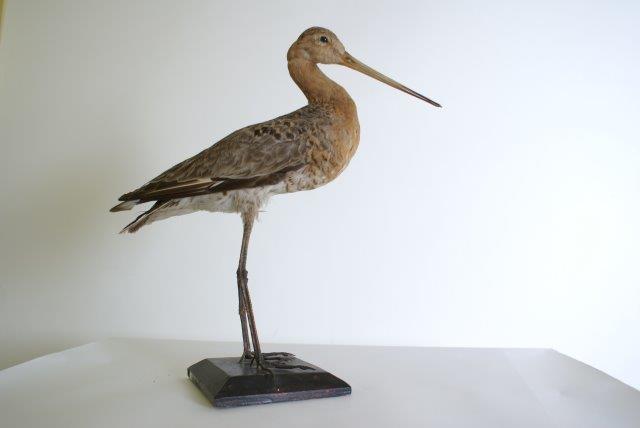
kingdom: Animalia
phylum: Chordata
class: Aves
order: Charadriiformes
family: Scolopacidae
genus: Limosa
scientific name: Limosa limosa
